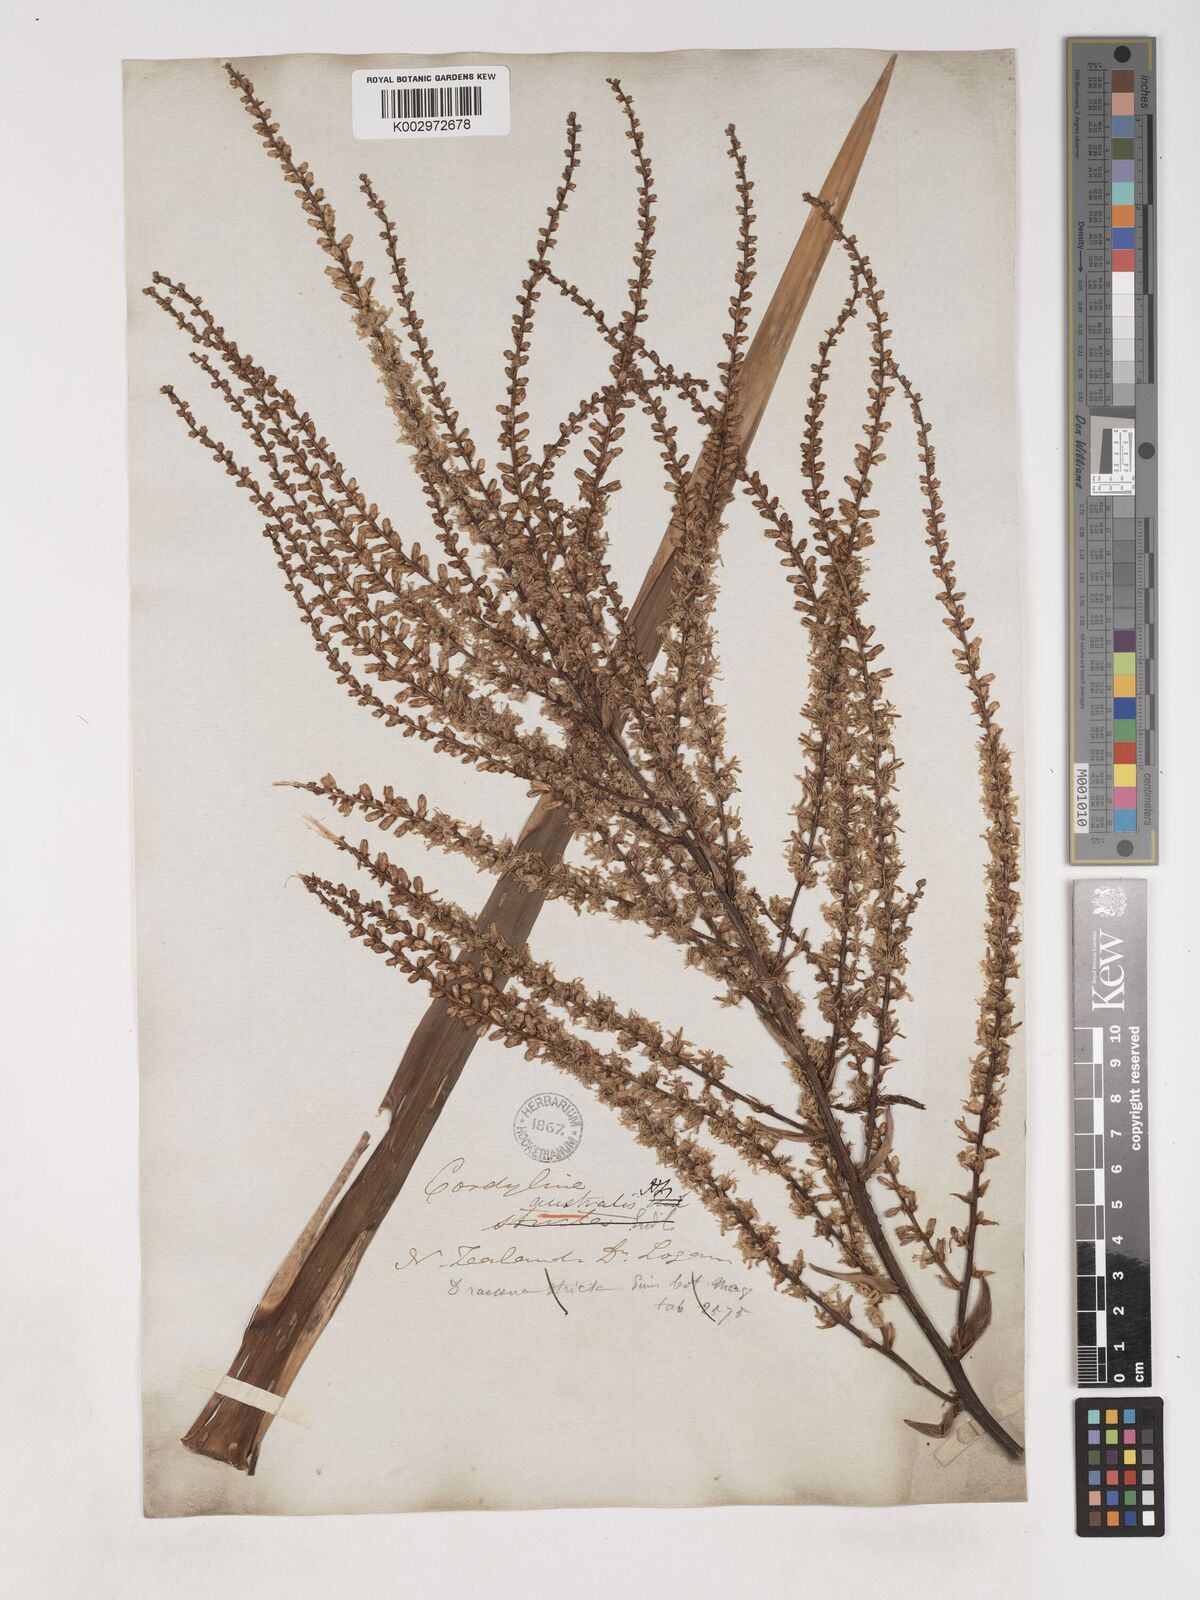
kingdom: Plantae
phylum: Tracheophyta
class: Liliopsida
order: Asparagales
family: Asparagaceae
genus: Cordyline
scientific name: Cordyline australis
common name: Cabbage-palm
